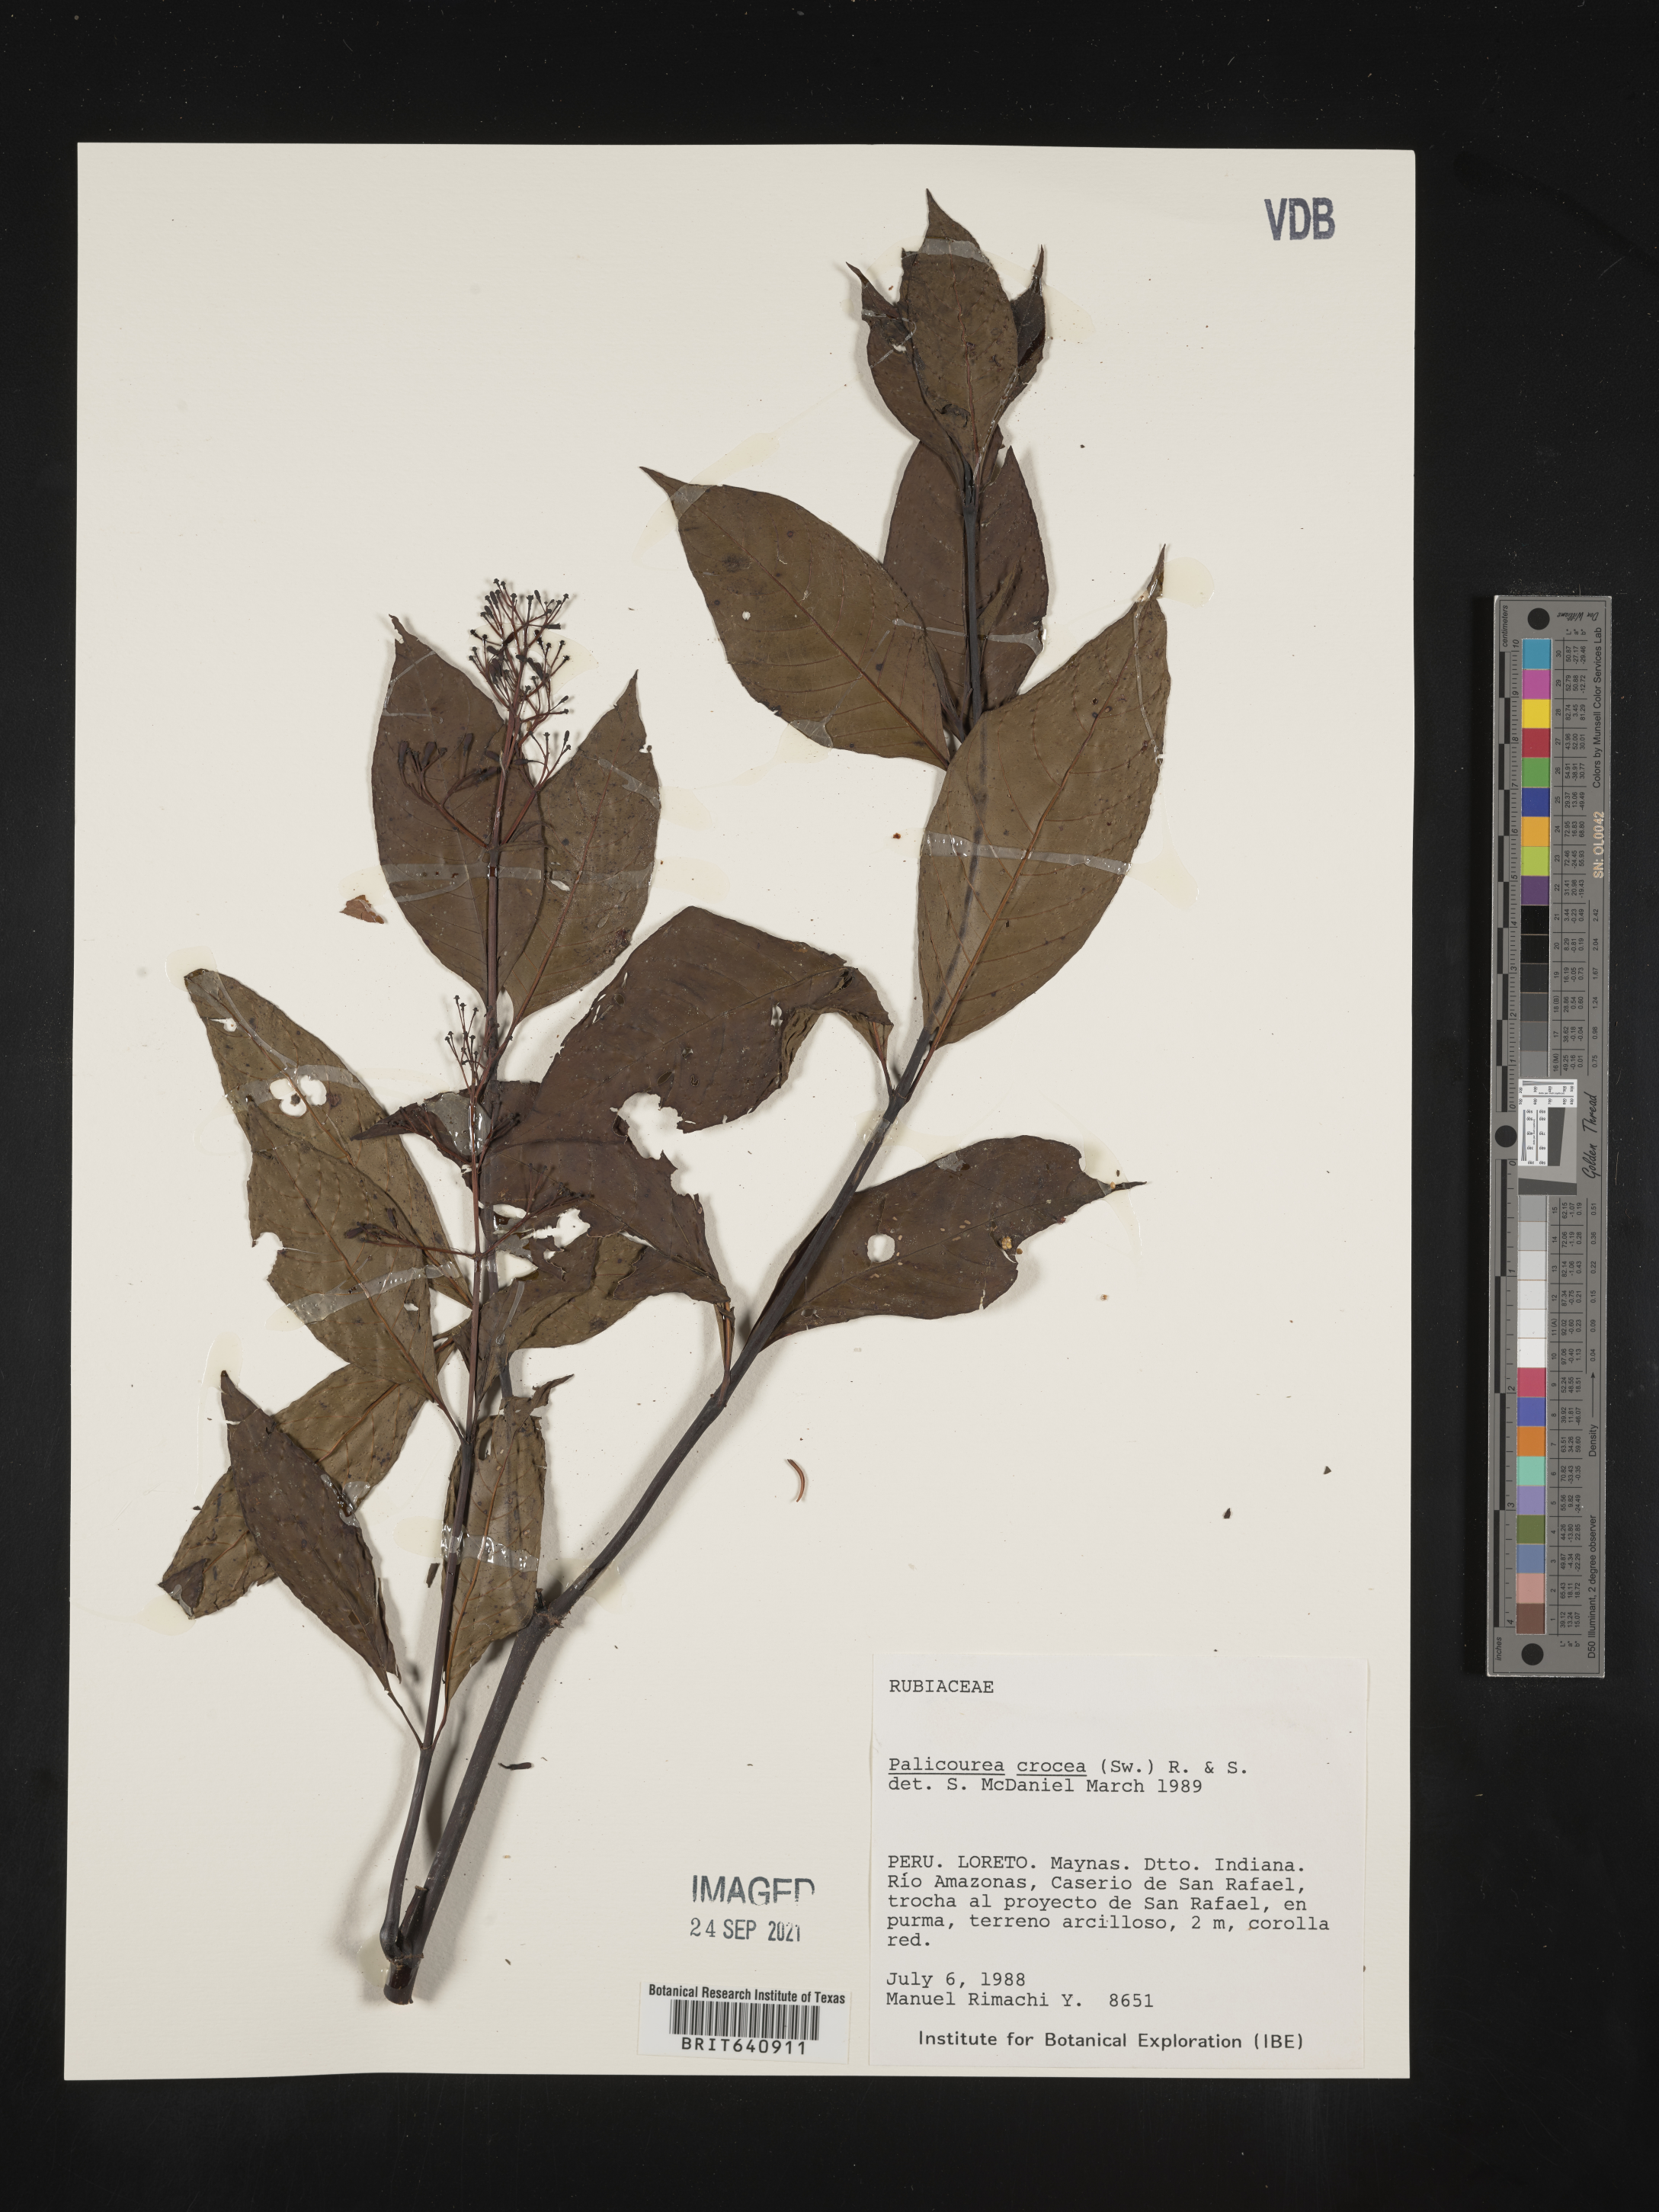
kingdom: Plantae
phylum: Tracheophyta
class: Magnoliopsida
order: Gentianales
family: Rubiaceae
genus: Palicourea
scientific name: Palicourea
